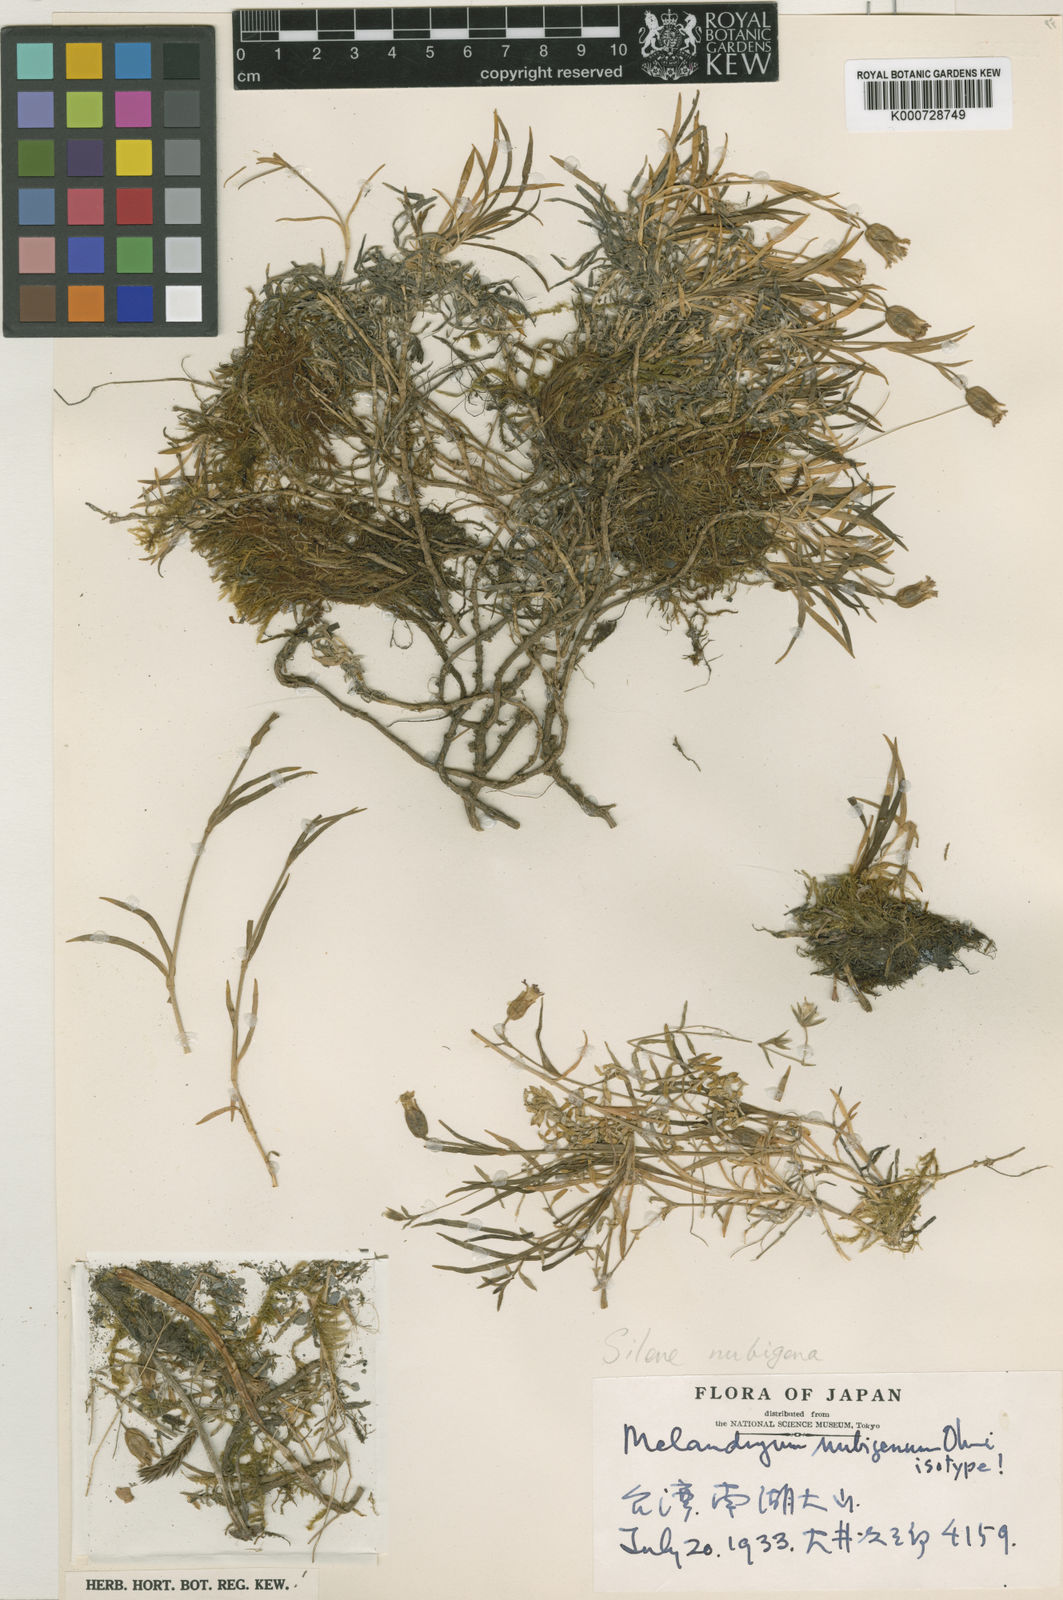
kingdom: Plantae
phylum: Tracheophyta
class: Magnoliopsida
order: Caryophyllales
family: Caryophyllaceae
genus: Silene
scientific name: Silene chilensis
